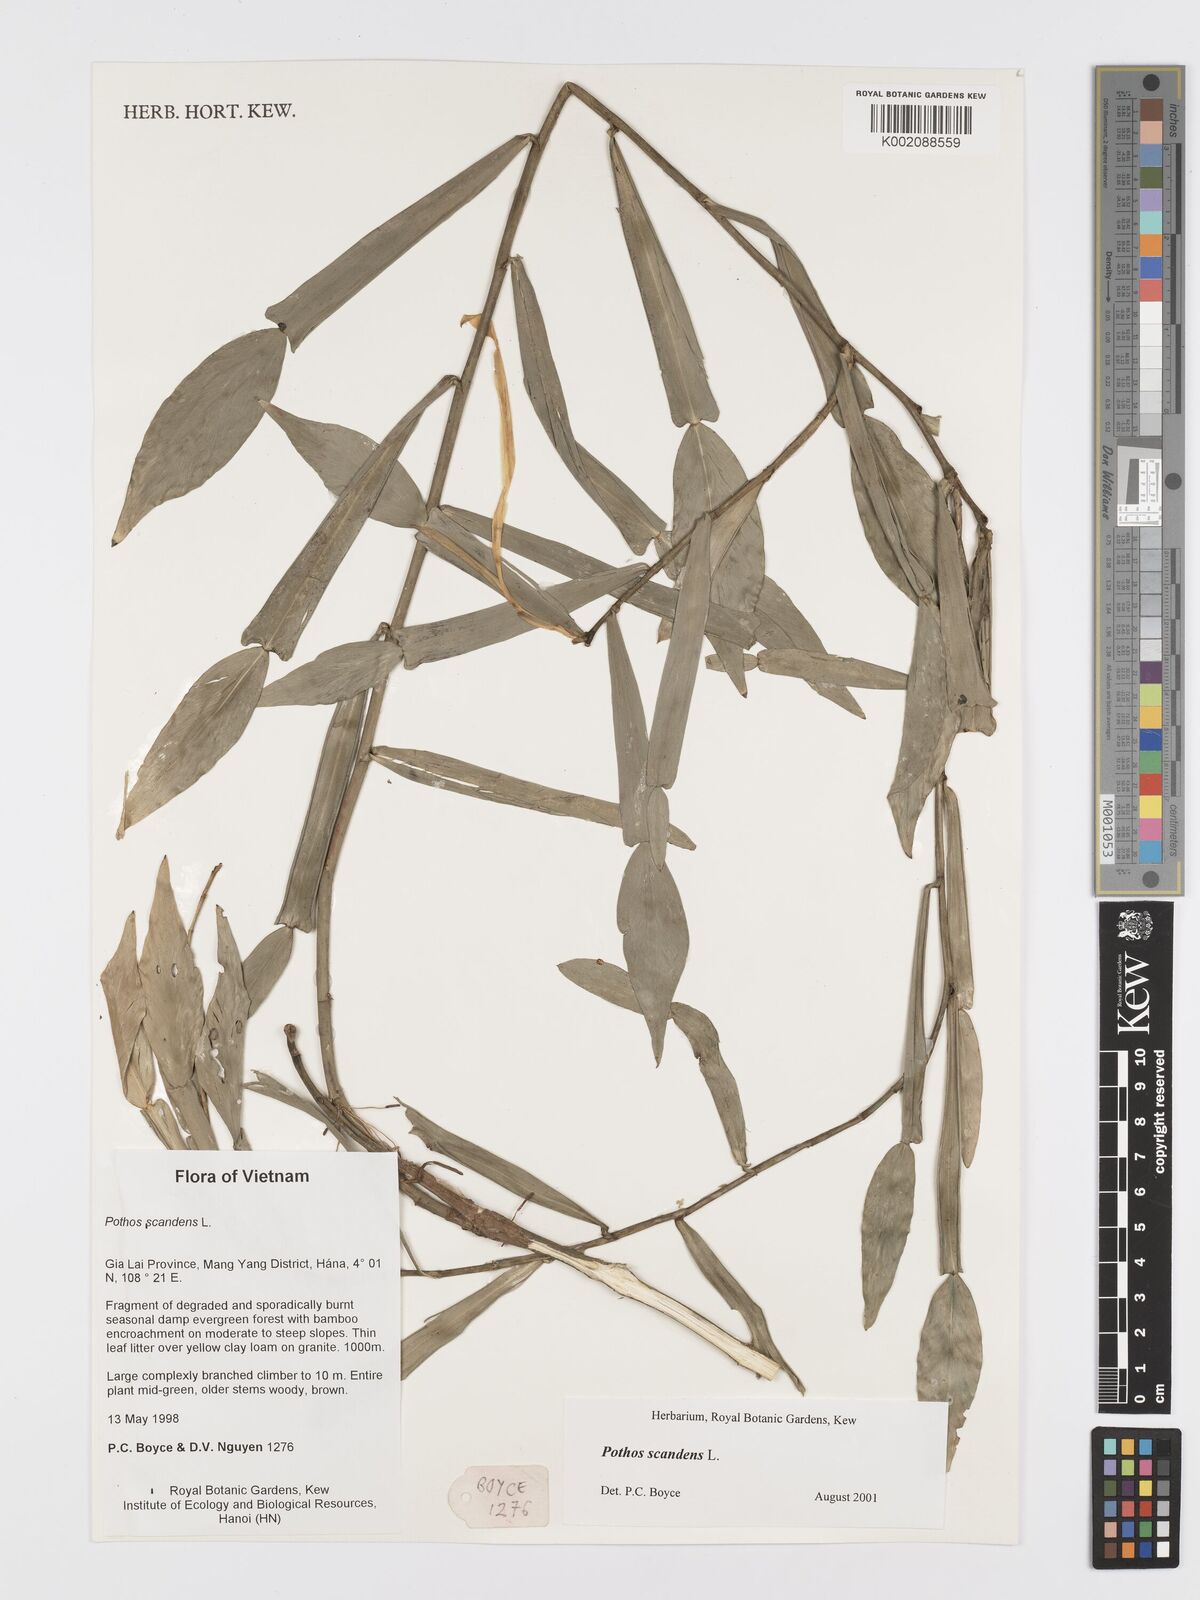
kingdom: Plantae
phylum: Tracheophyta
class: Liliopsida
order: Alismatales
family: Araceae
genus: Pothos
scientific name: Pothos scandens
